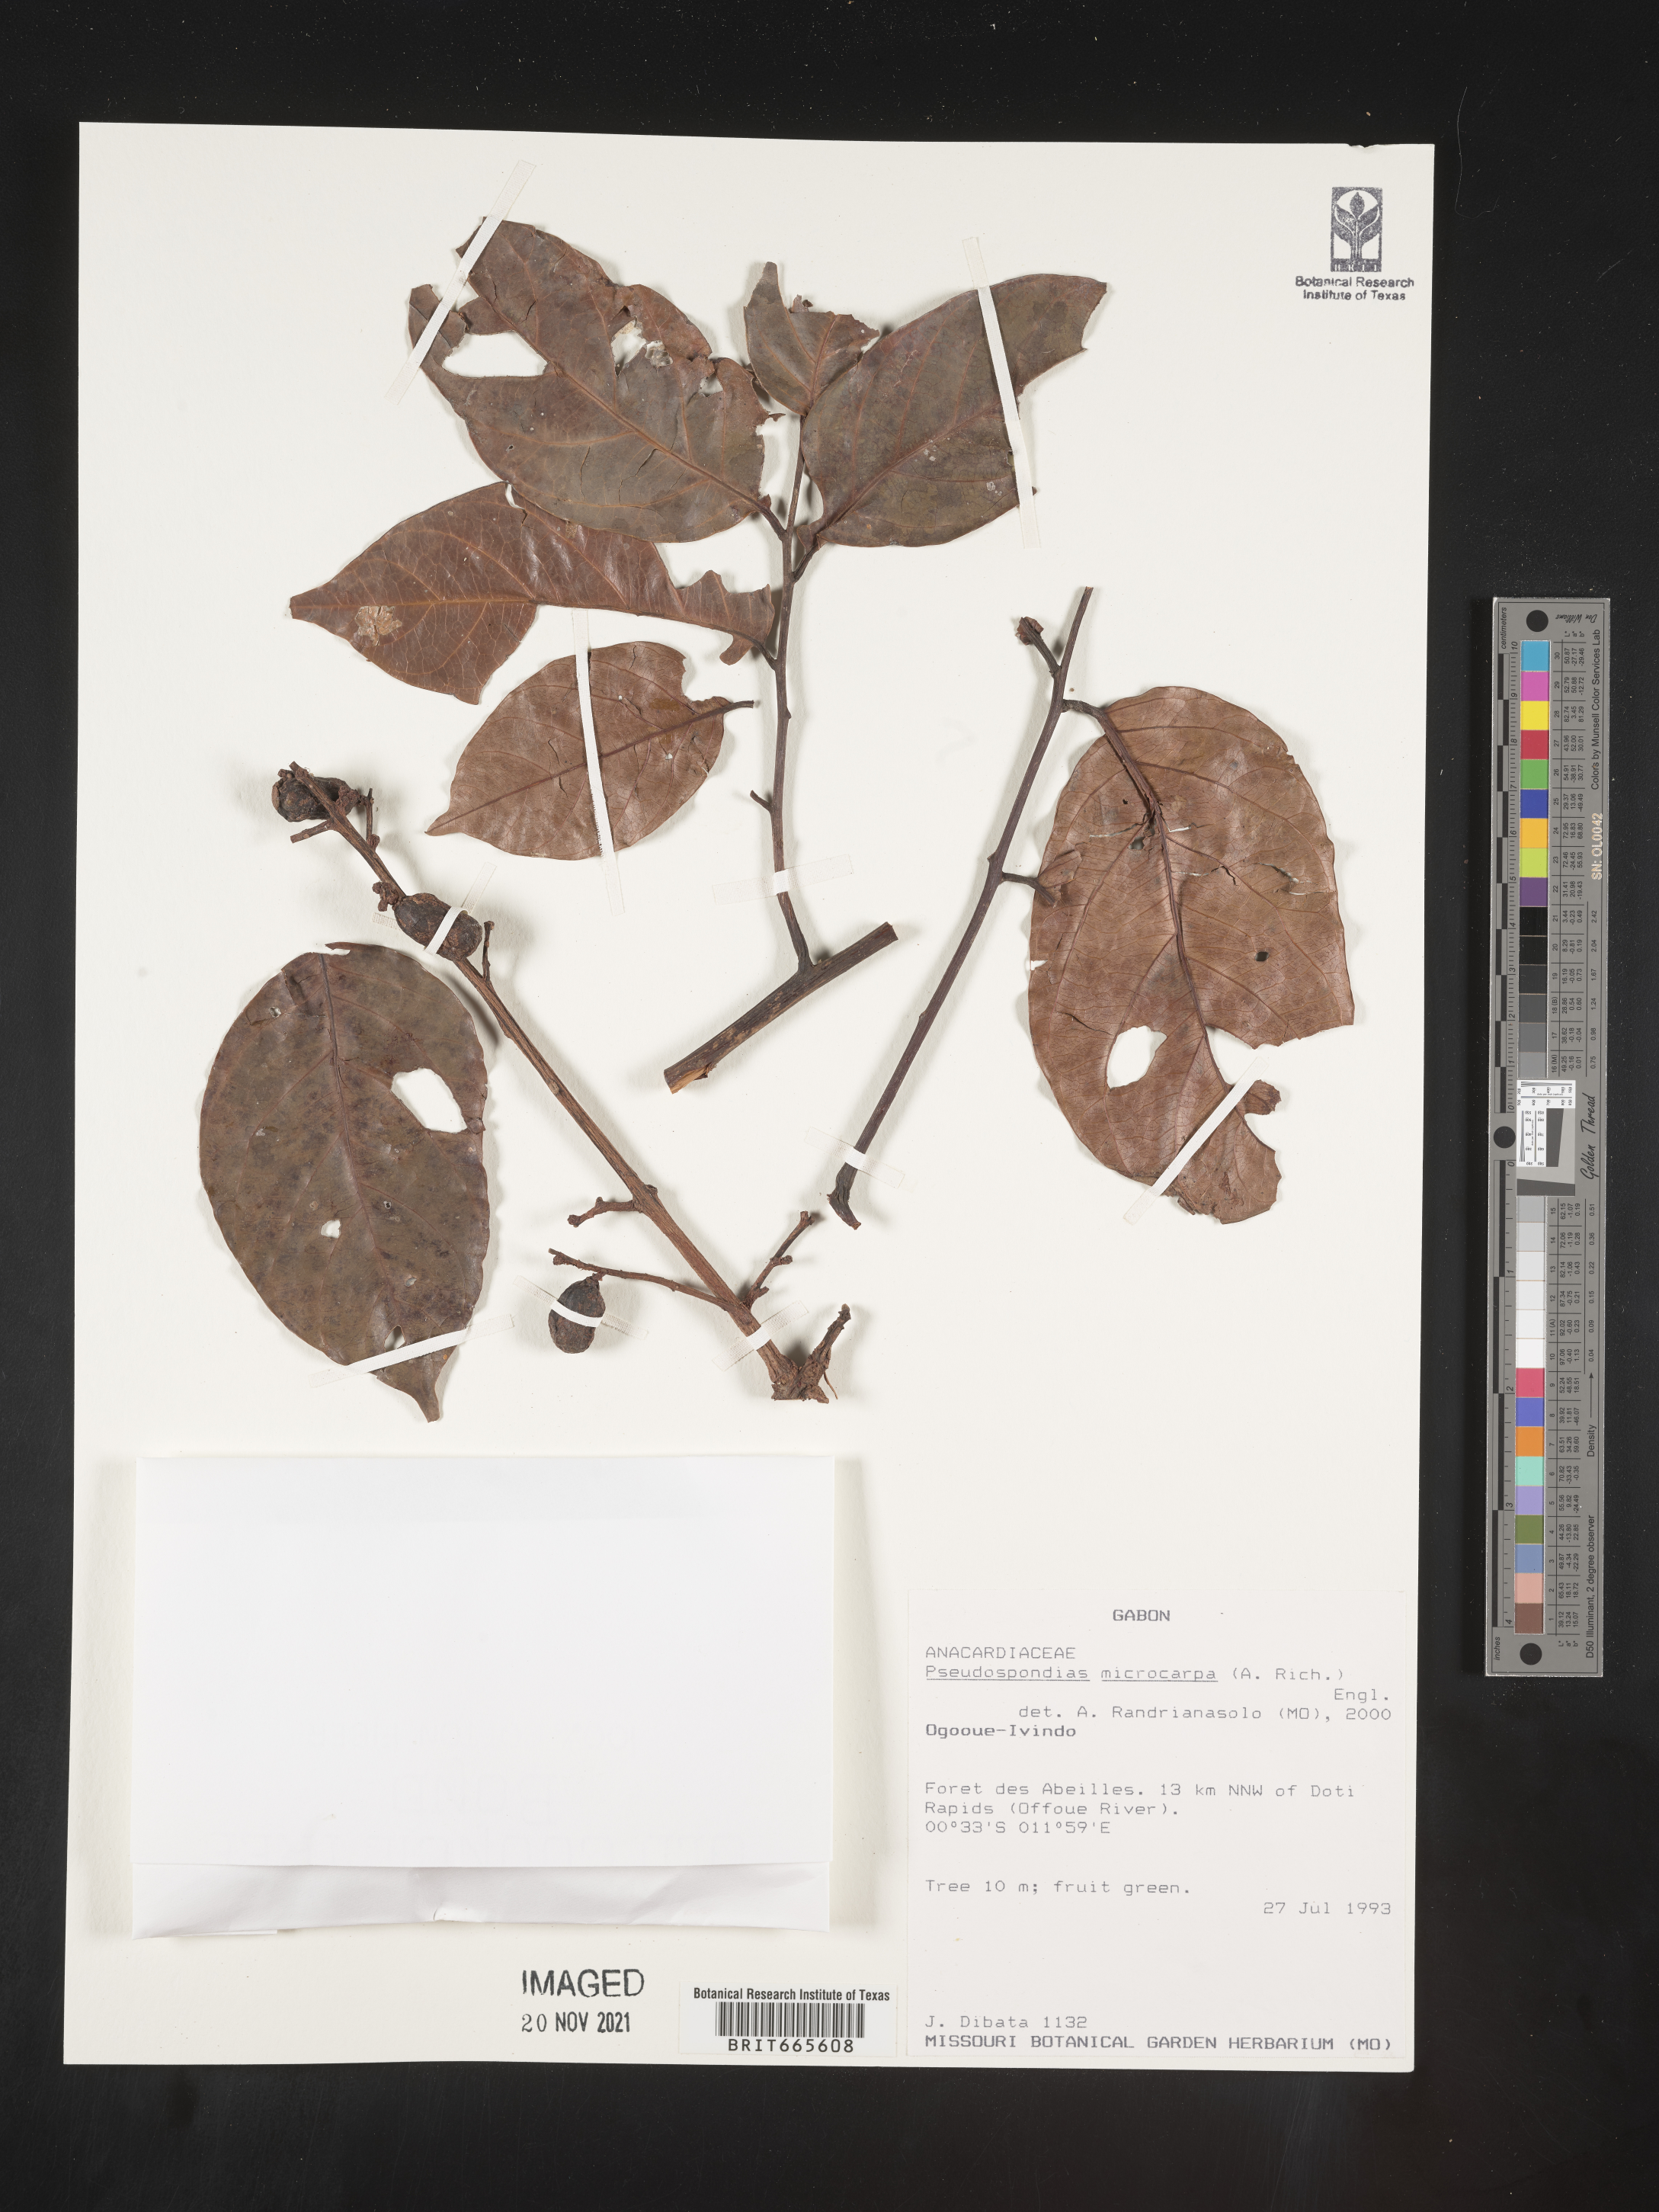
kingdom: Plantae
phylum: Tracheophyta
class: Magnoliopsida
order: Sapindales
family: Anacardiaceae
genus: Pseudospondias
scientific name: Pseudospondias
